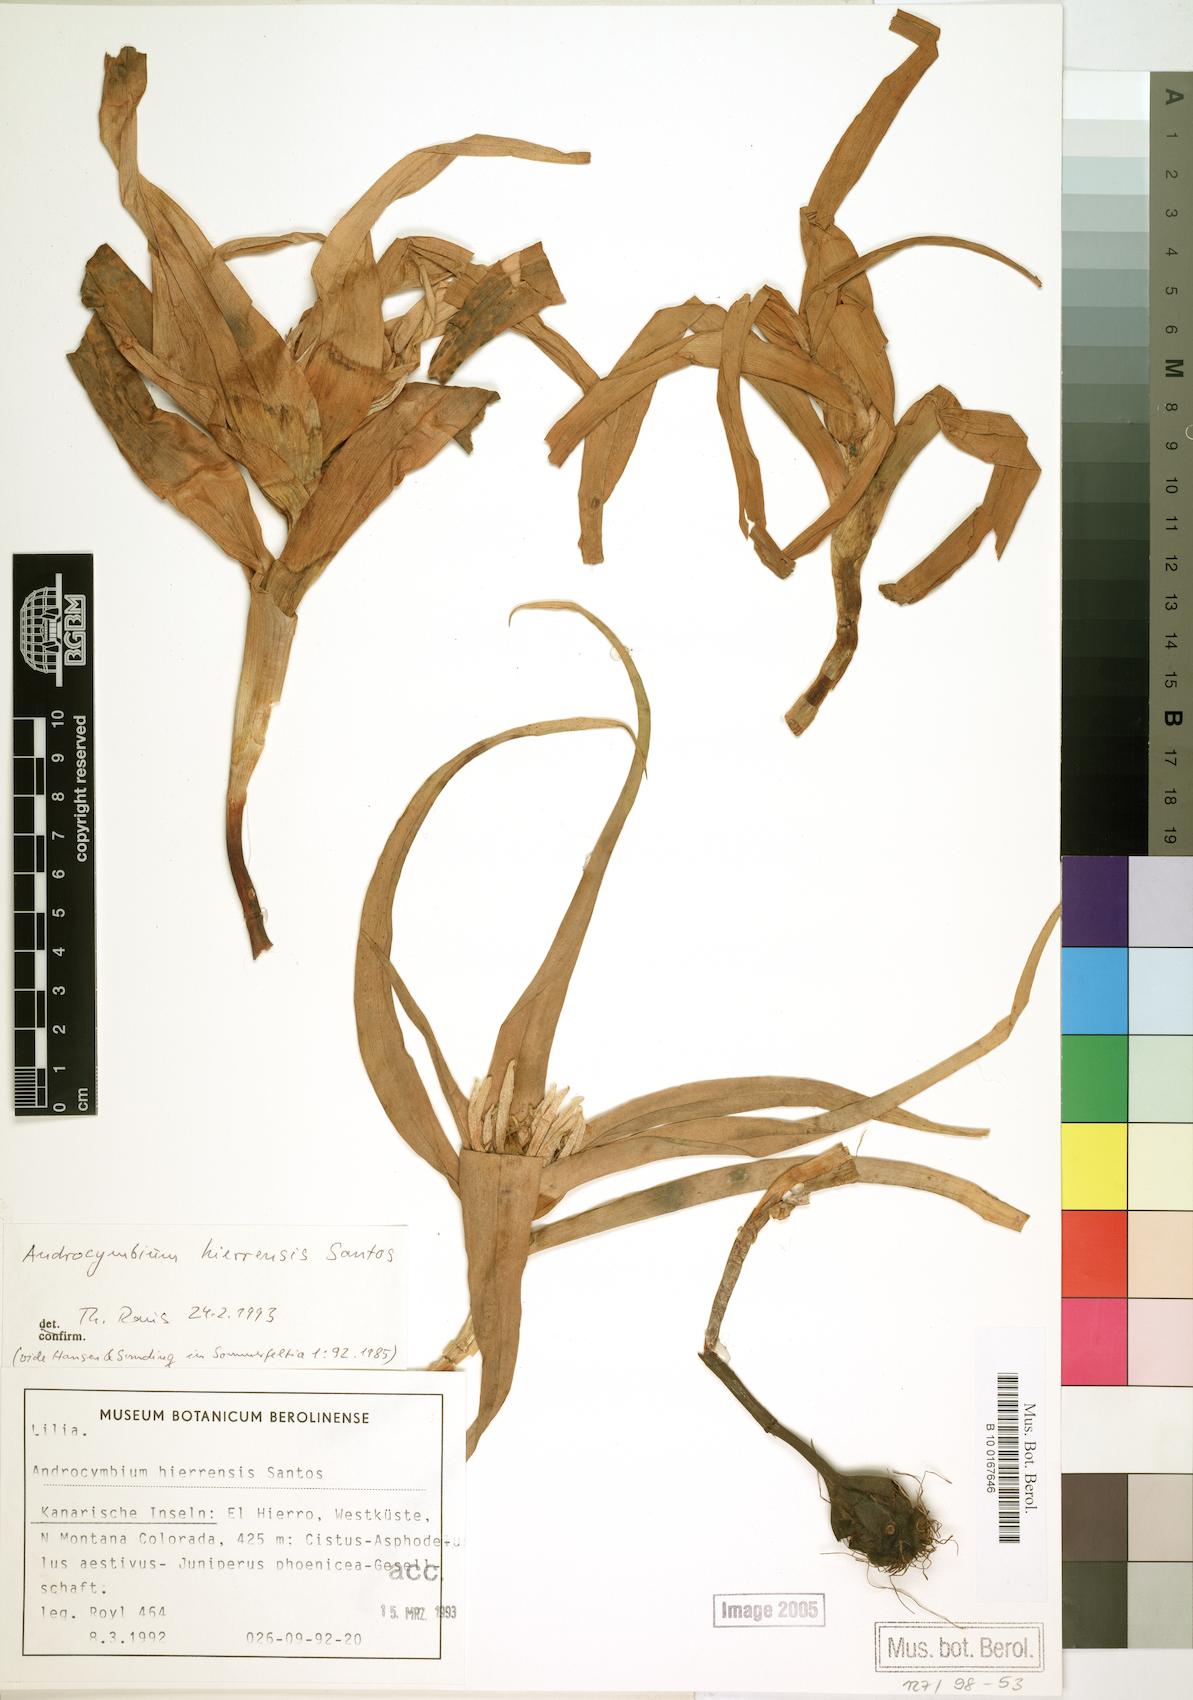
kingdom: Plantae
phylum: Tracheophyta
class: Liliopsida
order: Liliales
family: Colchicaceae
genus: Colchicum
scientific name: Colchicum hierrense
